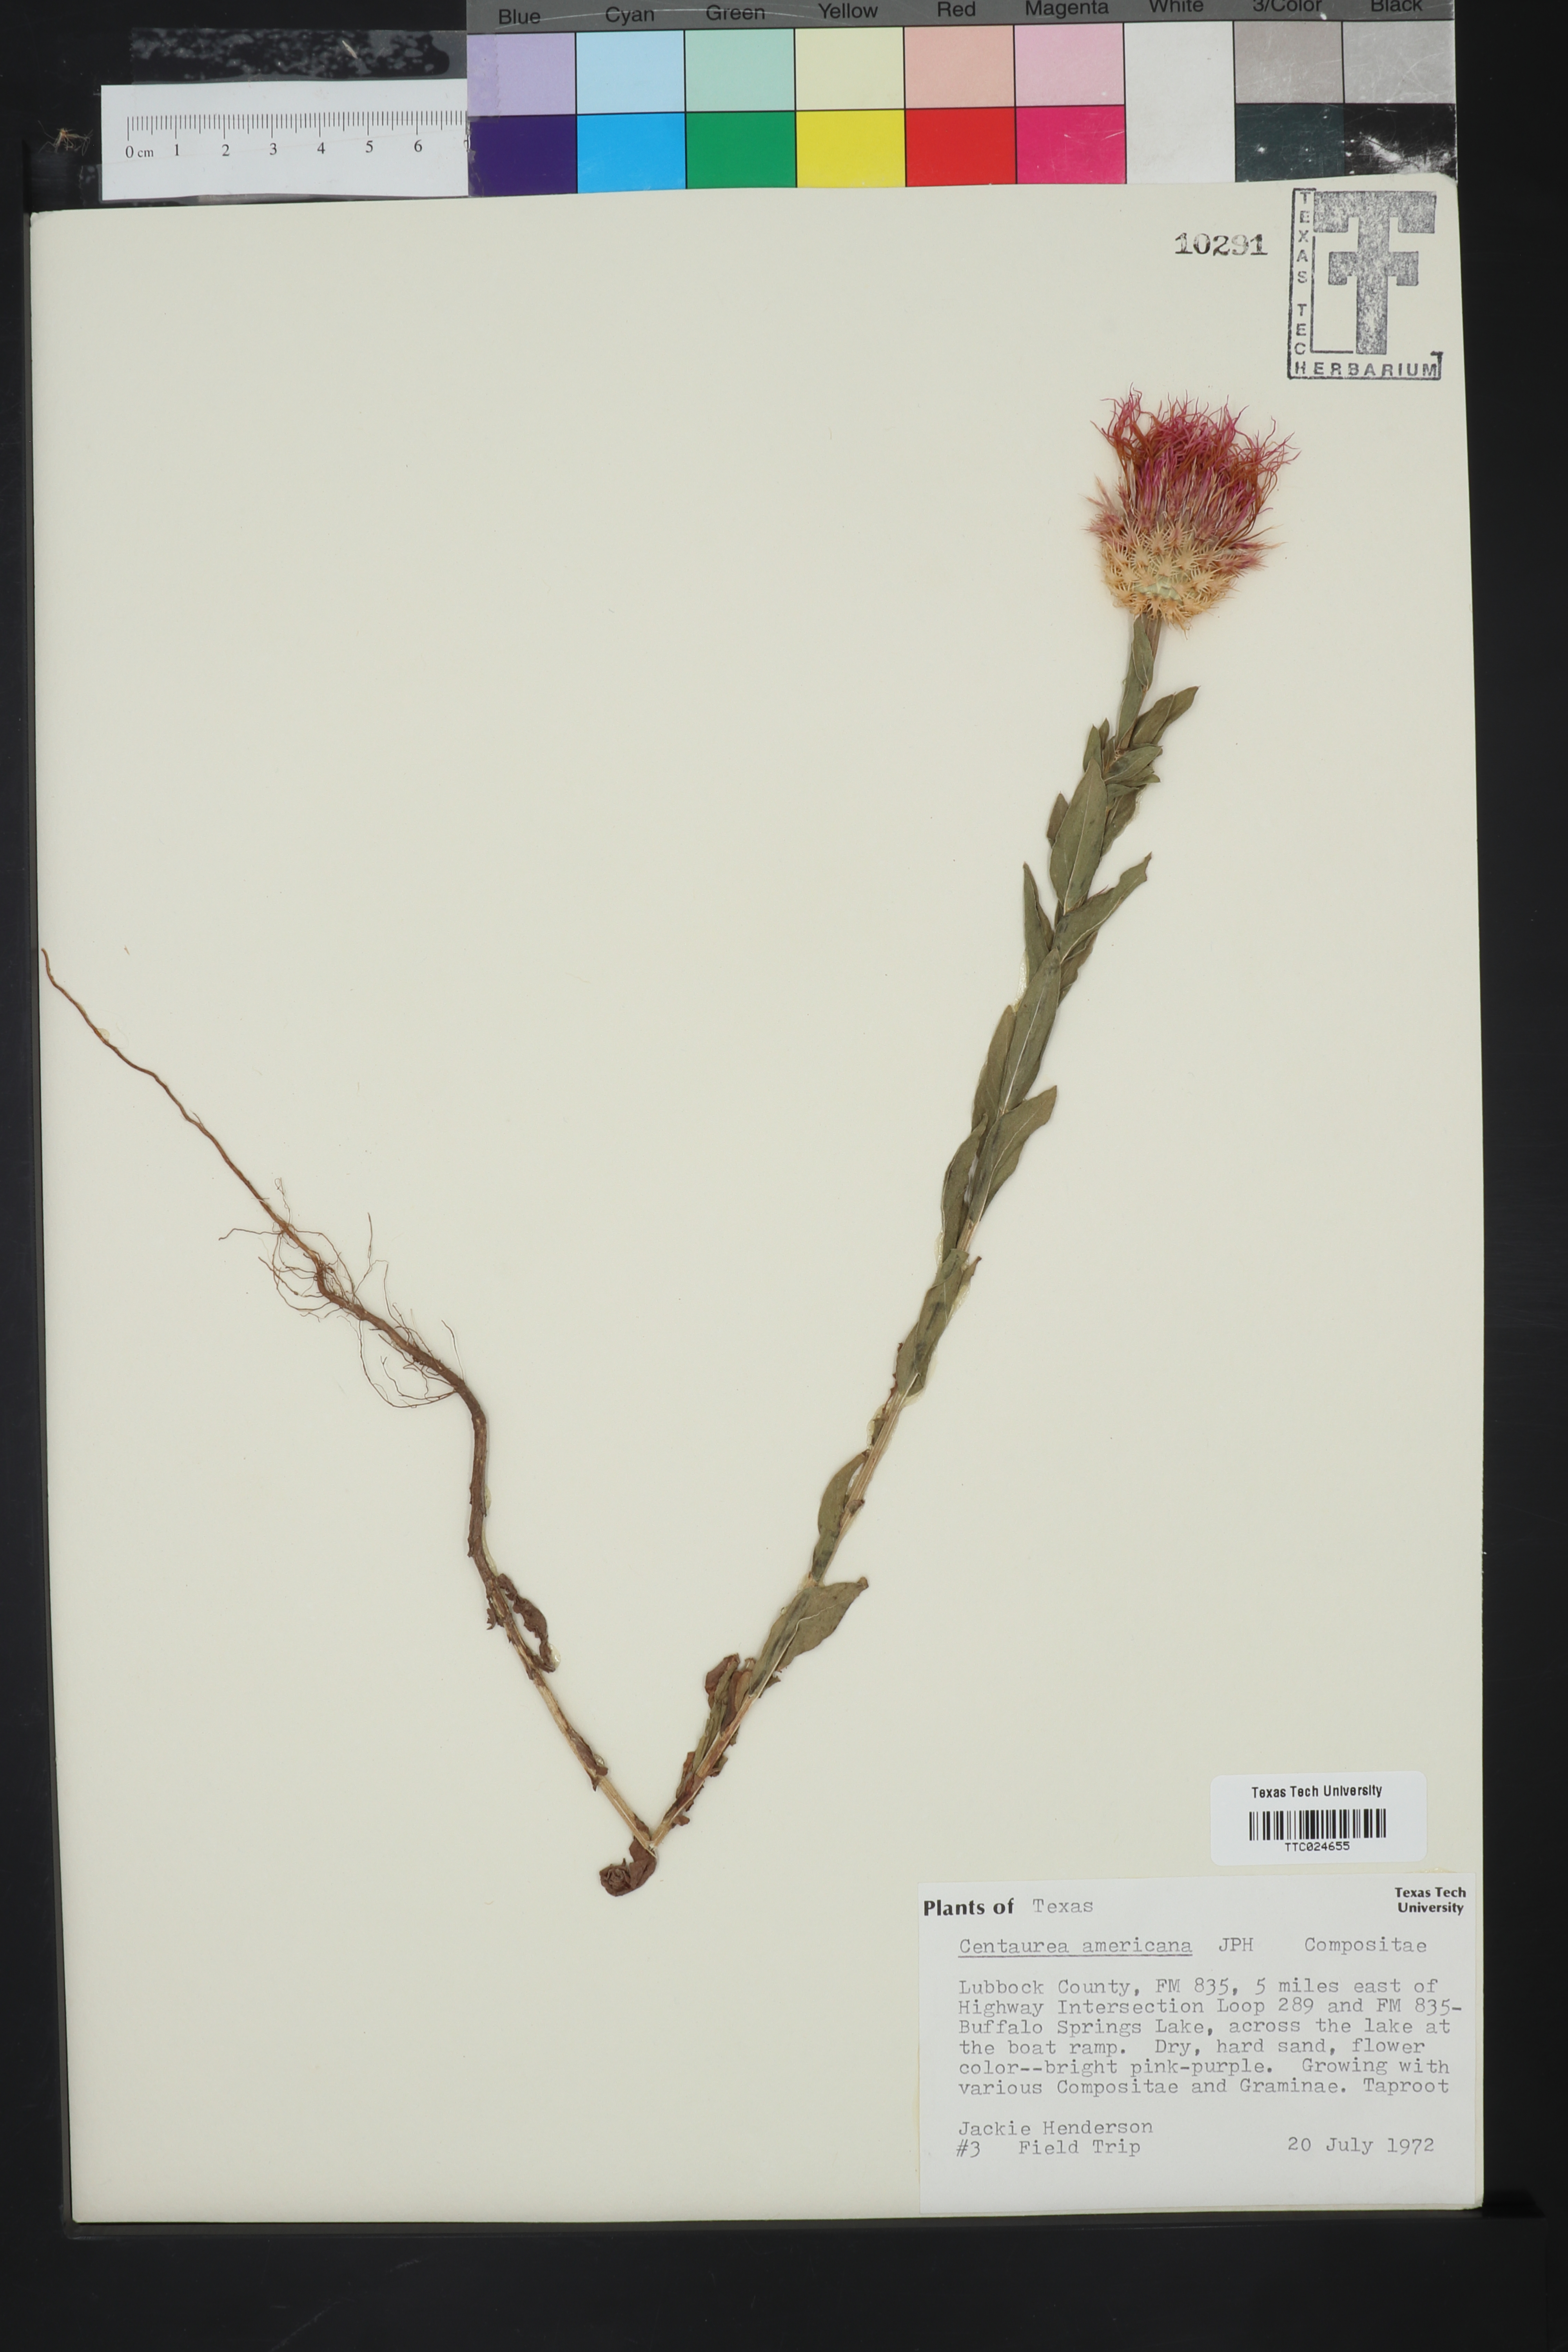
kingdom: Plantae
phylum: Tracheophyta
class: Magnoliopsida
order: Asterales
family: Asteraceae
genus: Plectocephalus
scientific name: Plectocephalus americanus
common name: American basket-flower
